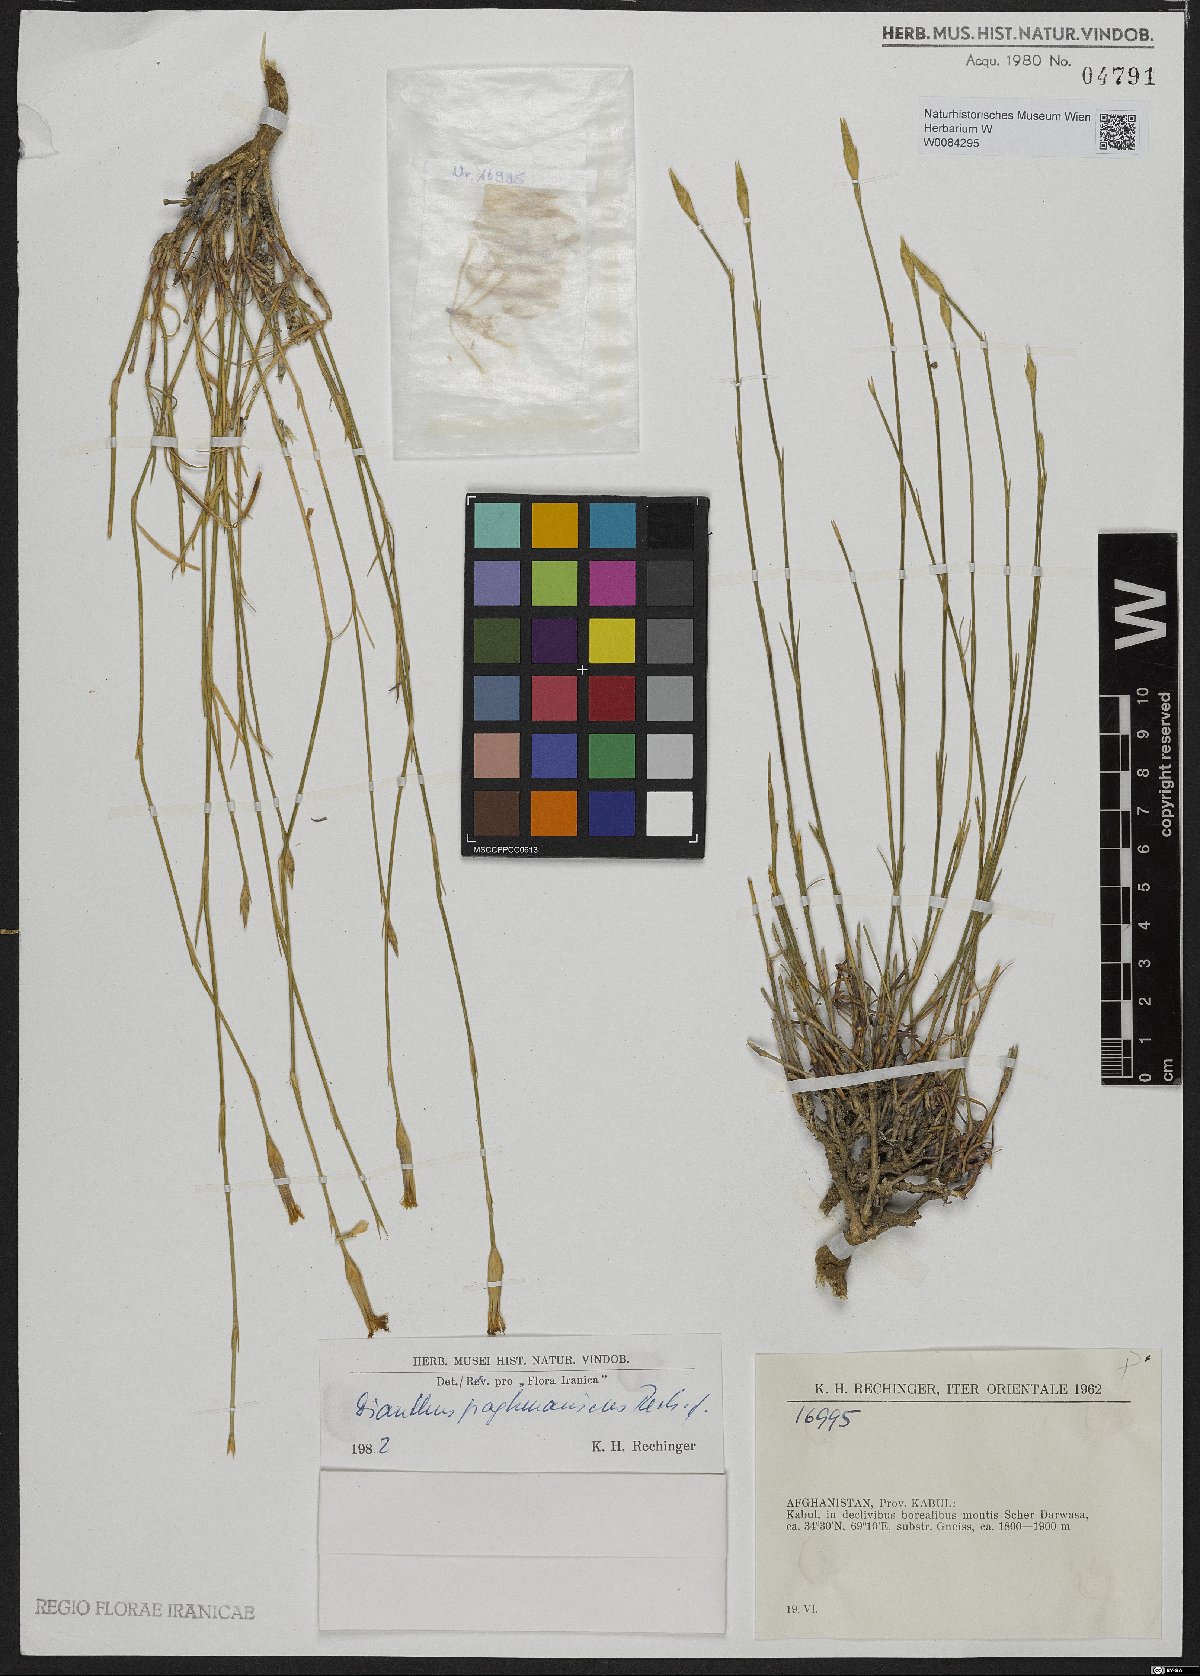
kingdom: Plantae
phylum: Tracheophyta
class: Magnoliopsida
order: Caryophyllales
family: Caryophyllaceae
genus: Dianthus
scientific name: Dianthus paghmanicus
